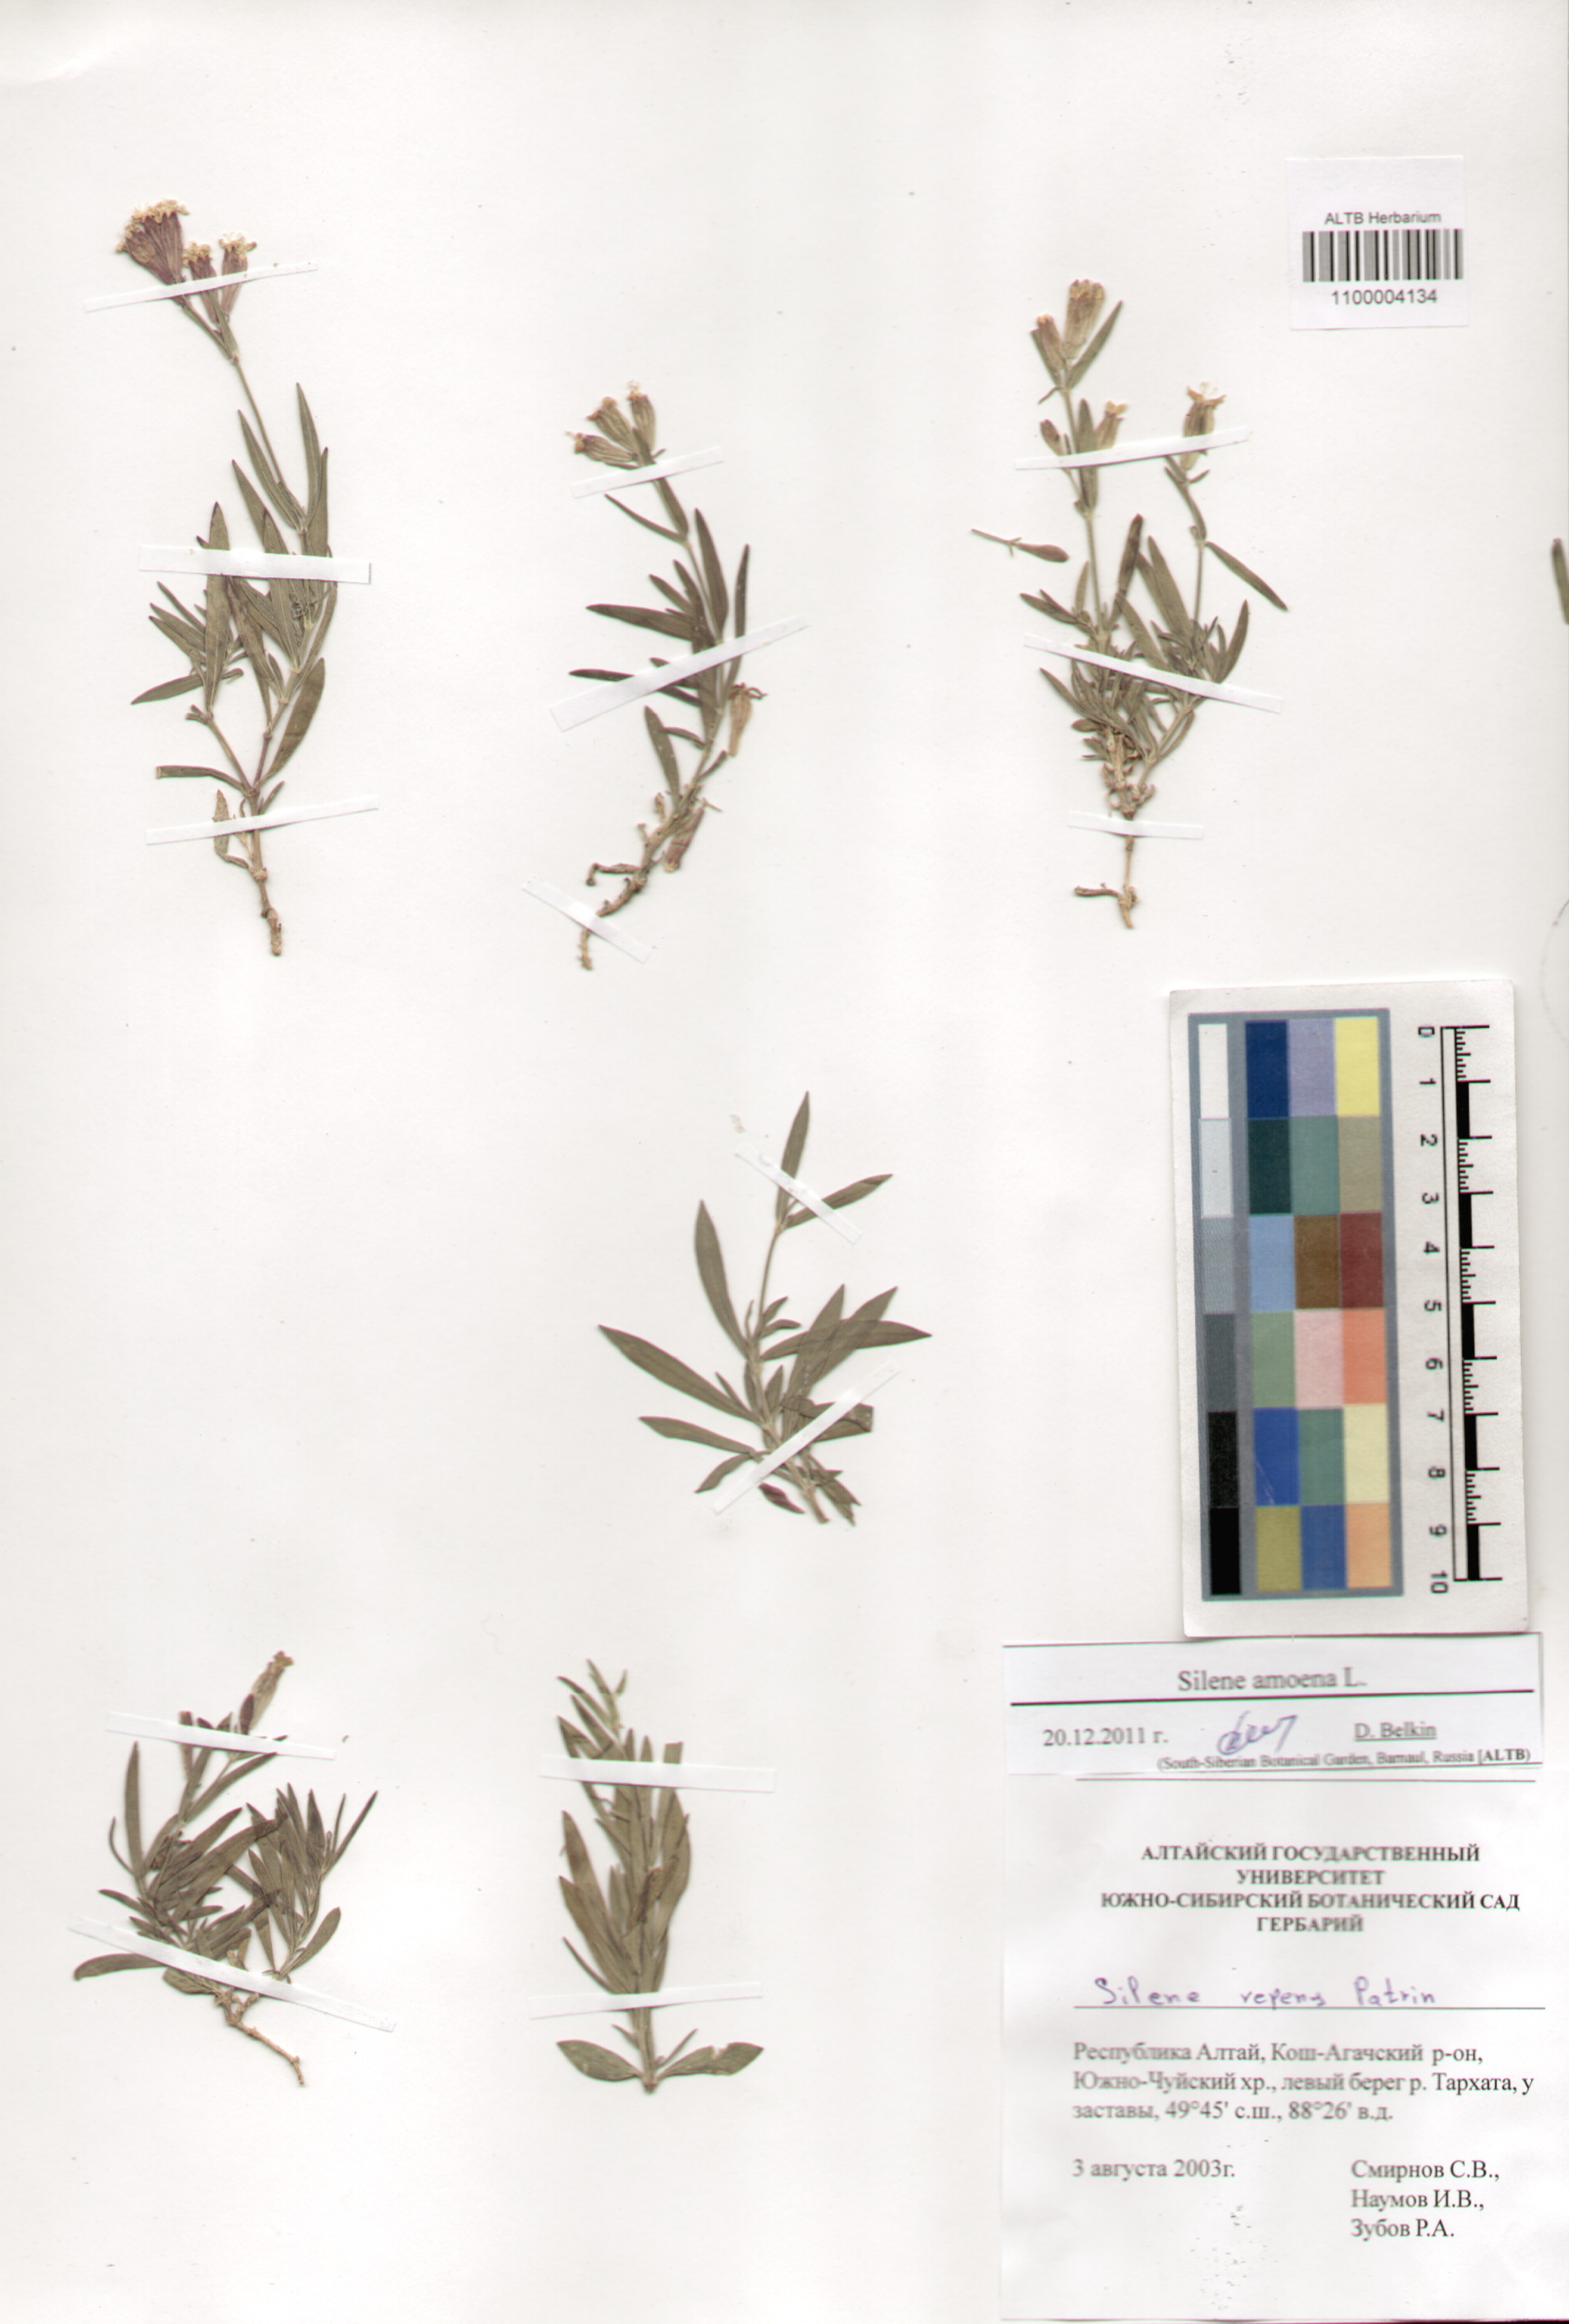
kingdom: Plantae
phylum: Tracheophyta
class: Magnoliopsida
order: Caryophyllales
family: Caryophyllaceae
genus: Silene
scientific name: Silene amoena
